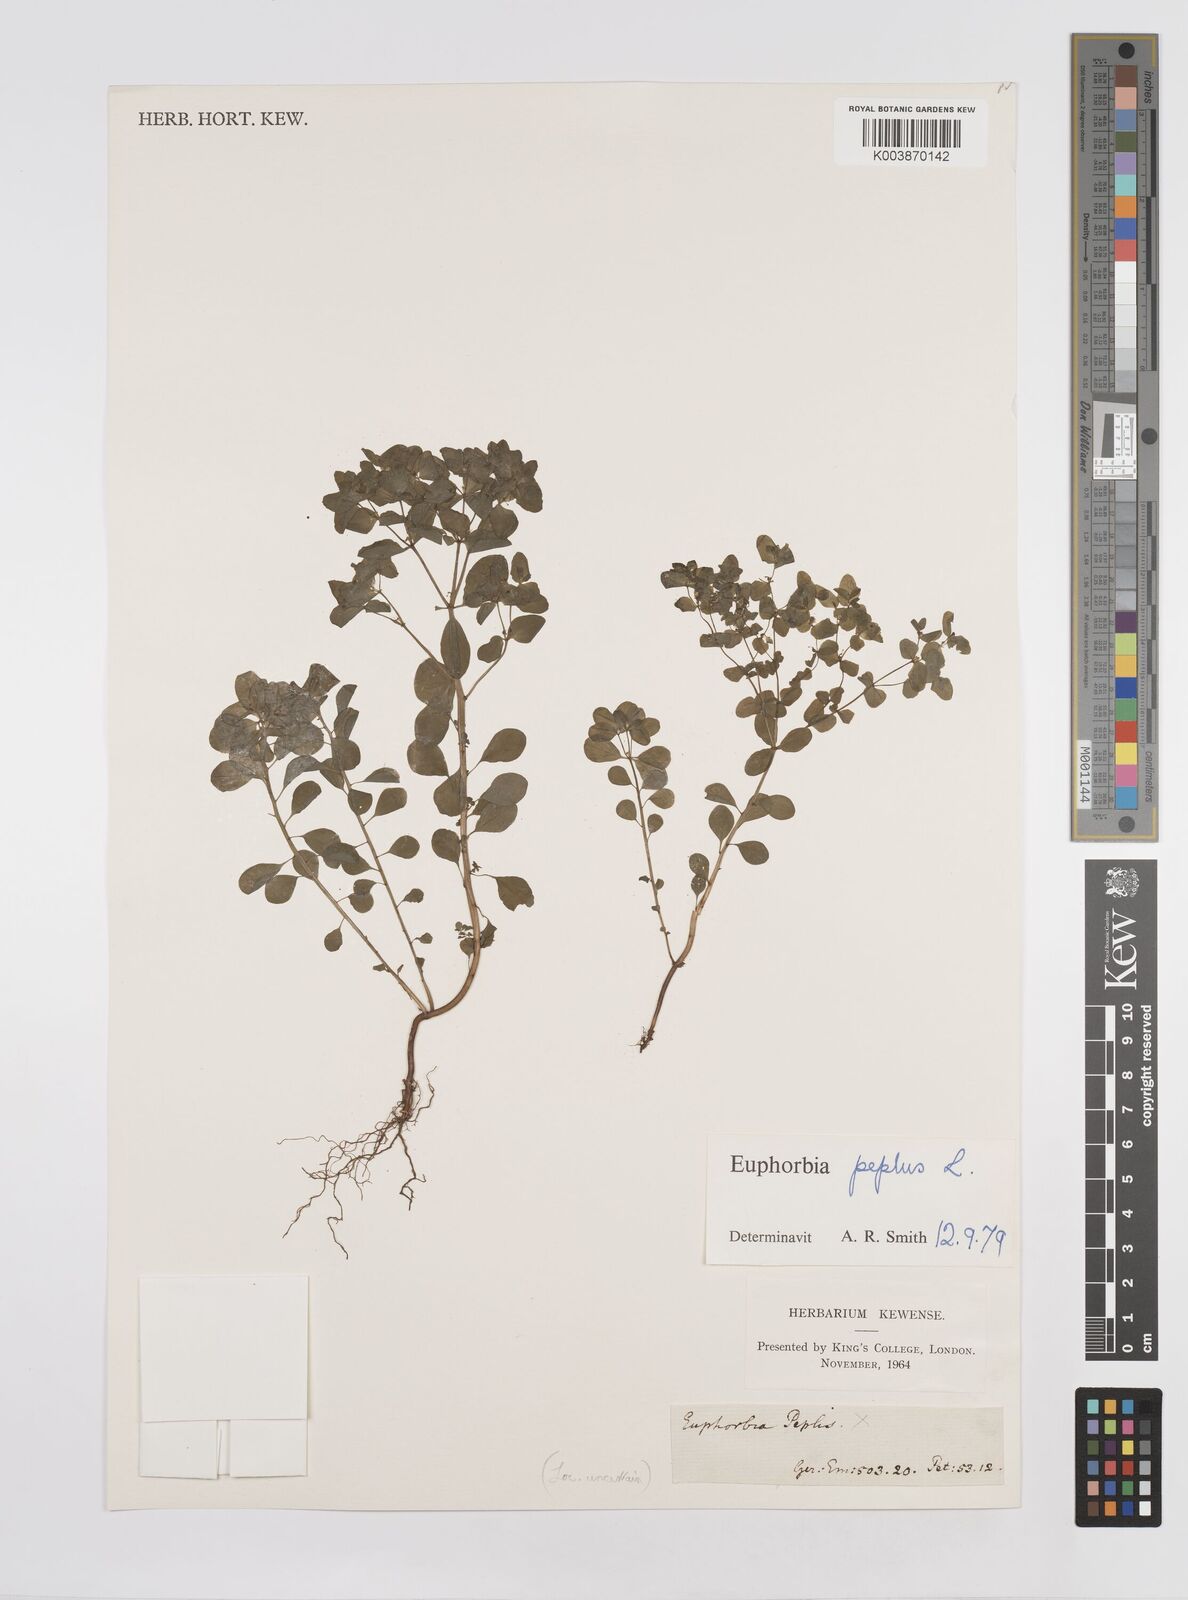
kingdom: Plantae
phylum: Tracheophyta
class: Magnoliopsida
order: Malpighiales
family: Euphorbiaceae
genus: Euphorbia
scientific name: Euphorbia peplis
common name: Purple spurge
